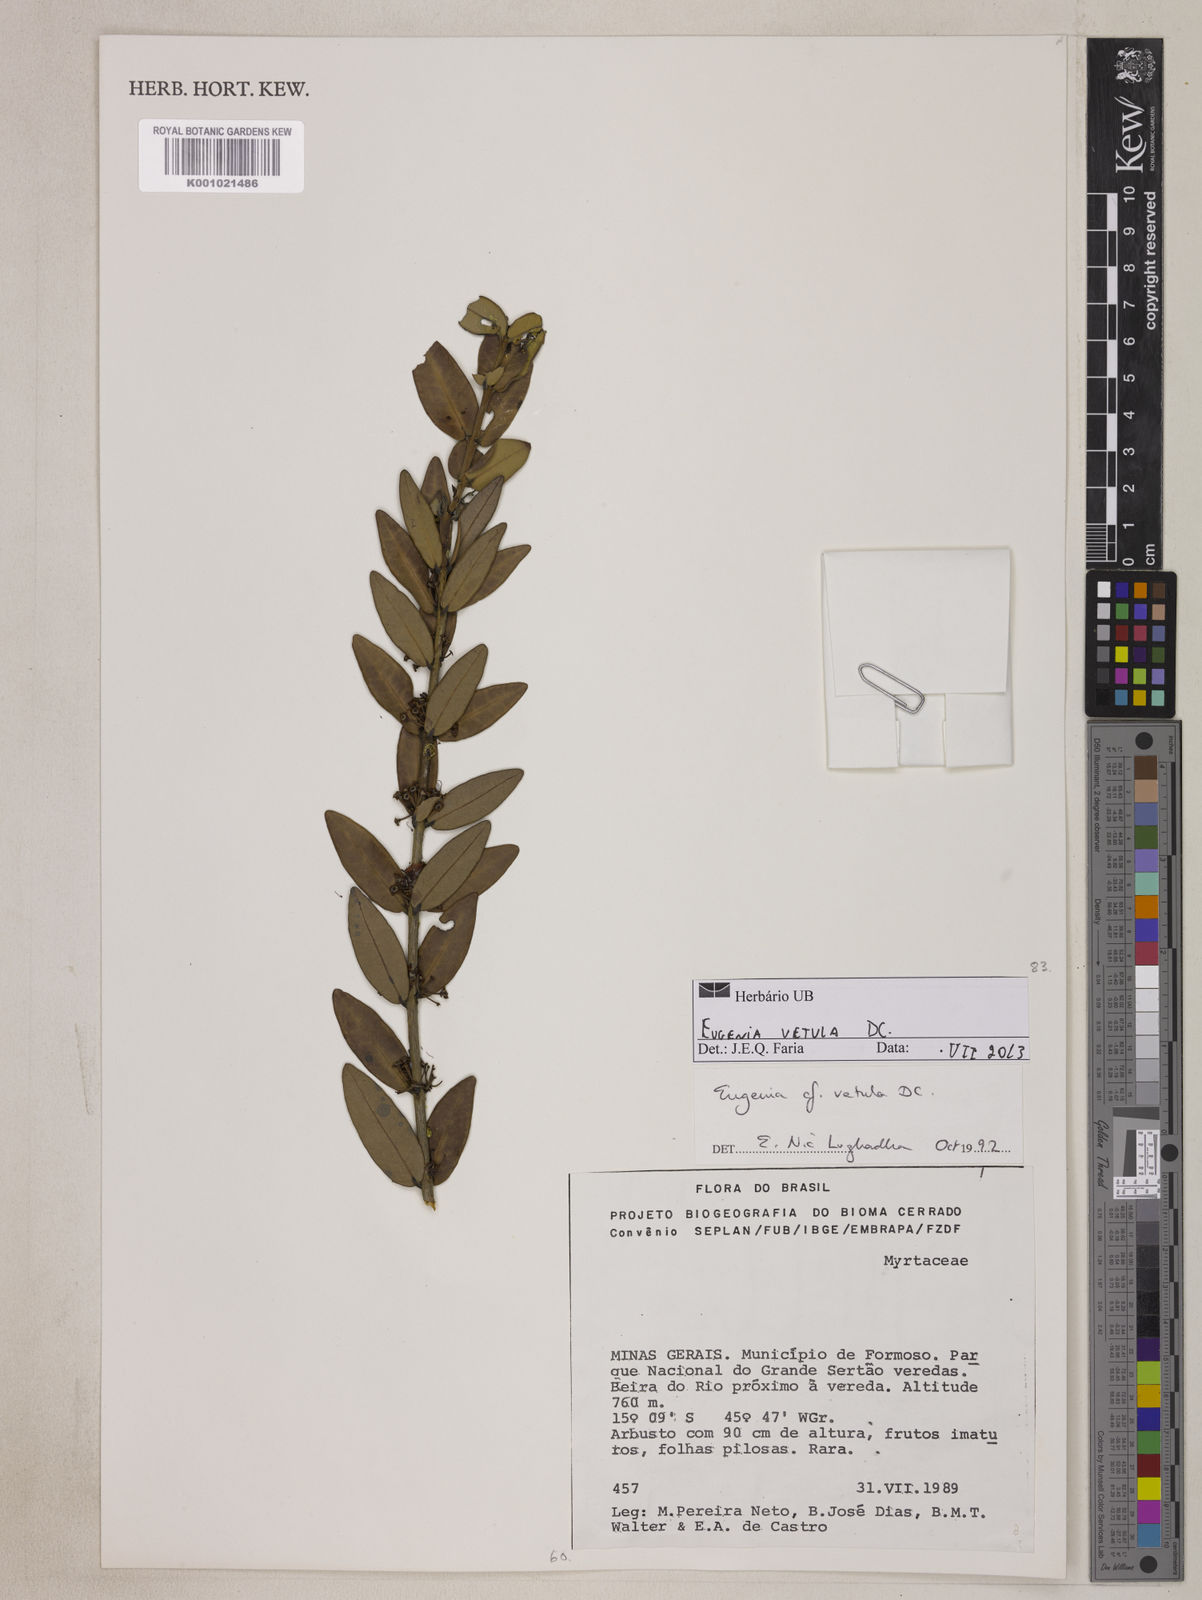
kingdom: Plantae
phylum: Tracheophyta
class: Magnoliopsida
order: Myrtales
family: Myrtaceae
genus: Eugenia
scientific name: Eugenia vetula
